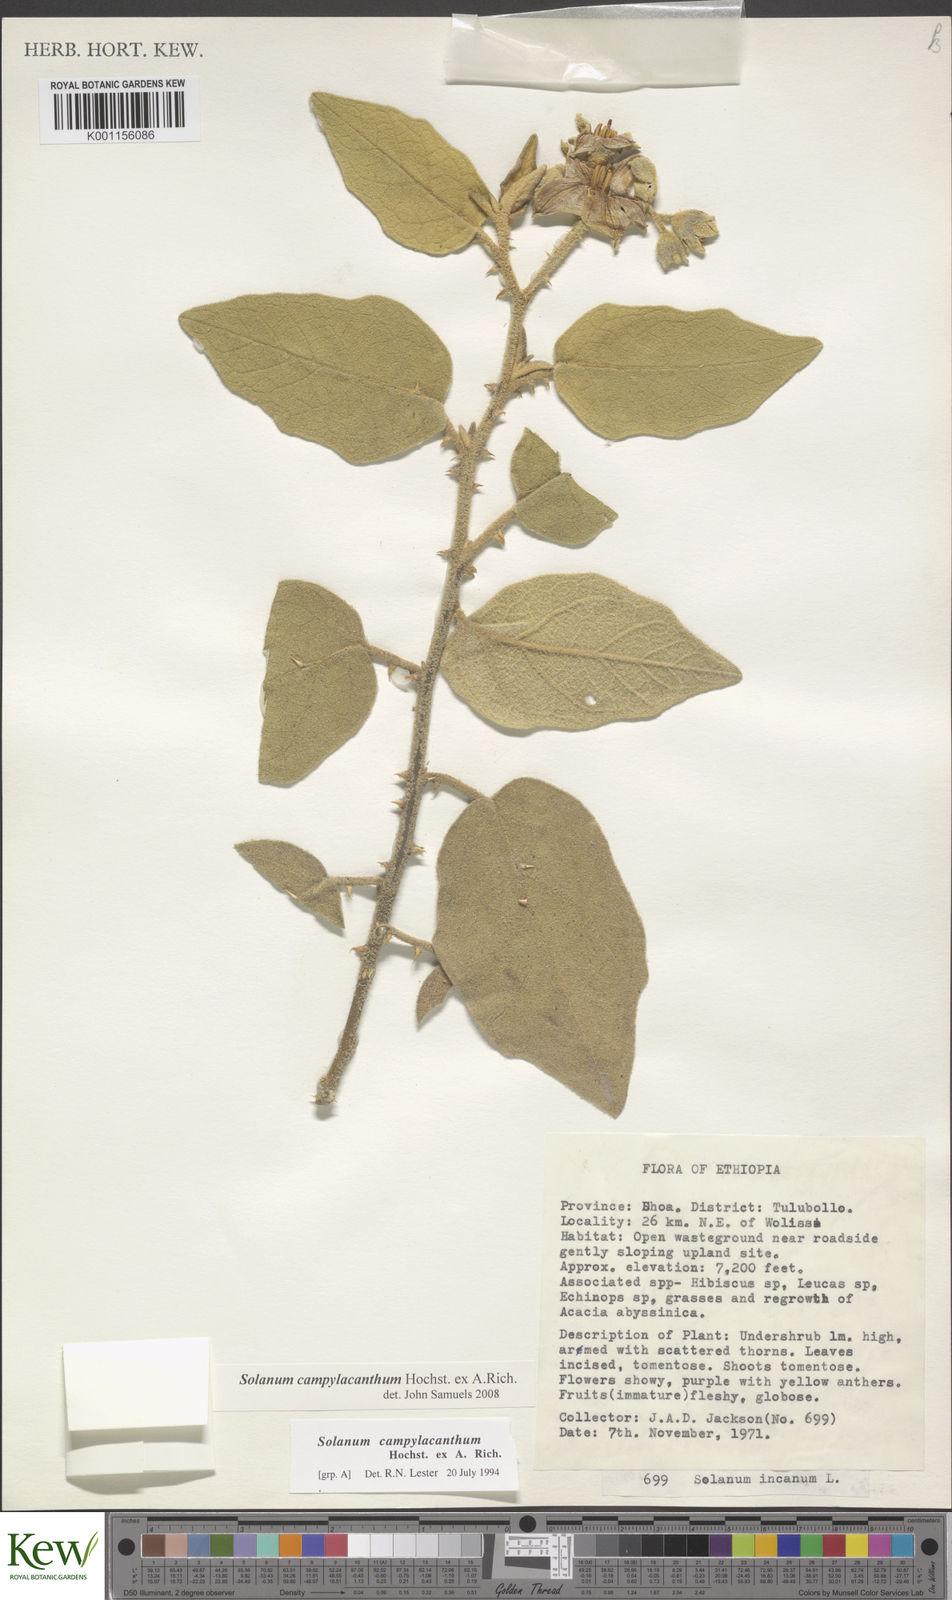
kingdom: Plantae
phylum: Tracheophyta
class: Magnoliopsida
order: Solanales
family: Solanaceae
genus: Solanum
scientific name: Solanum campylacanthum
